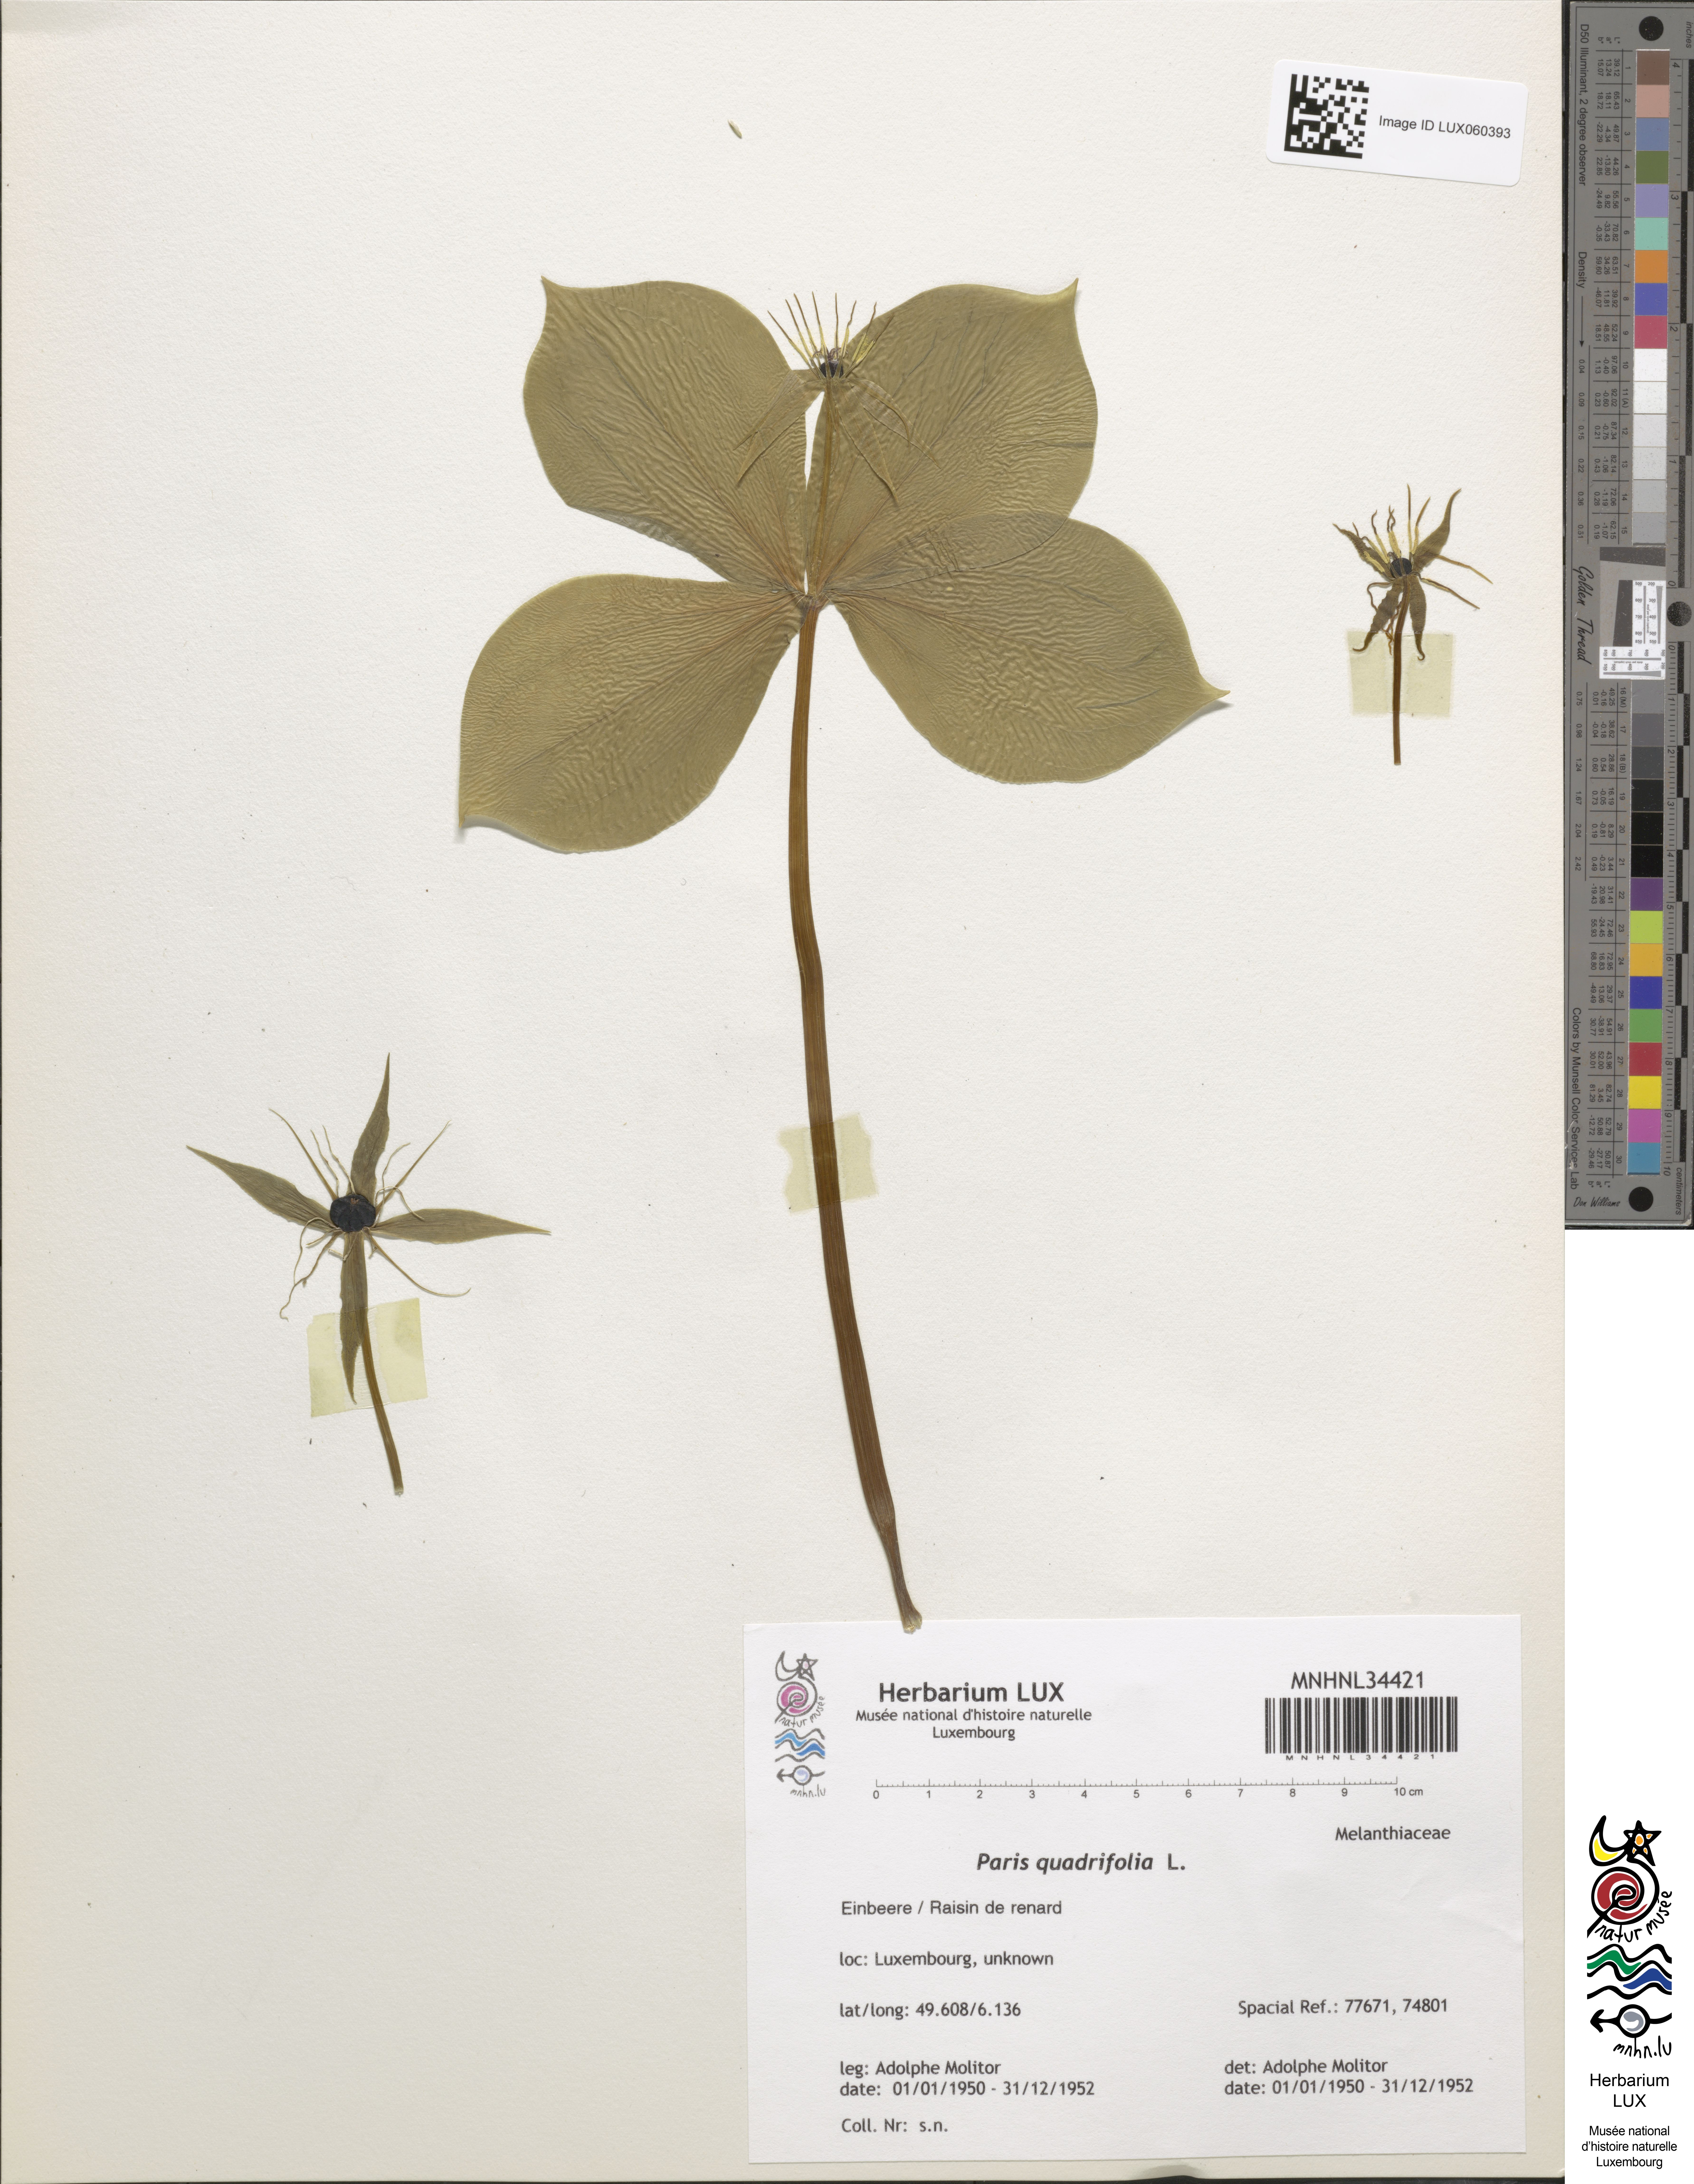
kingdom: Plantae
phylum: Tracheophyta
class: Liliopsida
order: Liliales
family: Melanthiaceae
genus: Paris
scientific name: Paris quadrifolia
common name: Herb-paris
